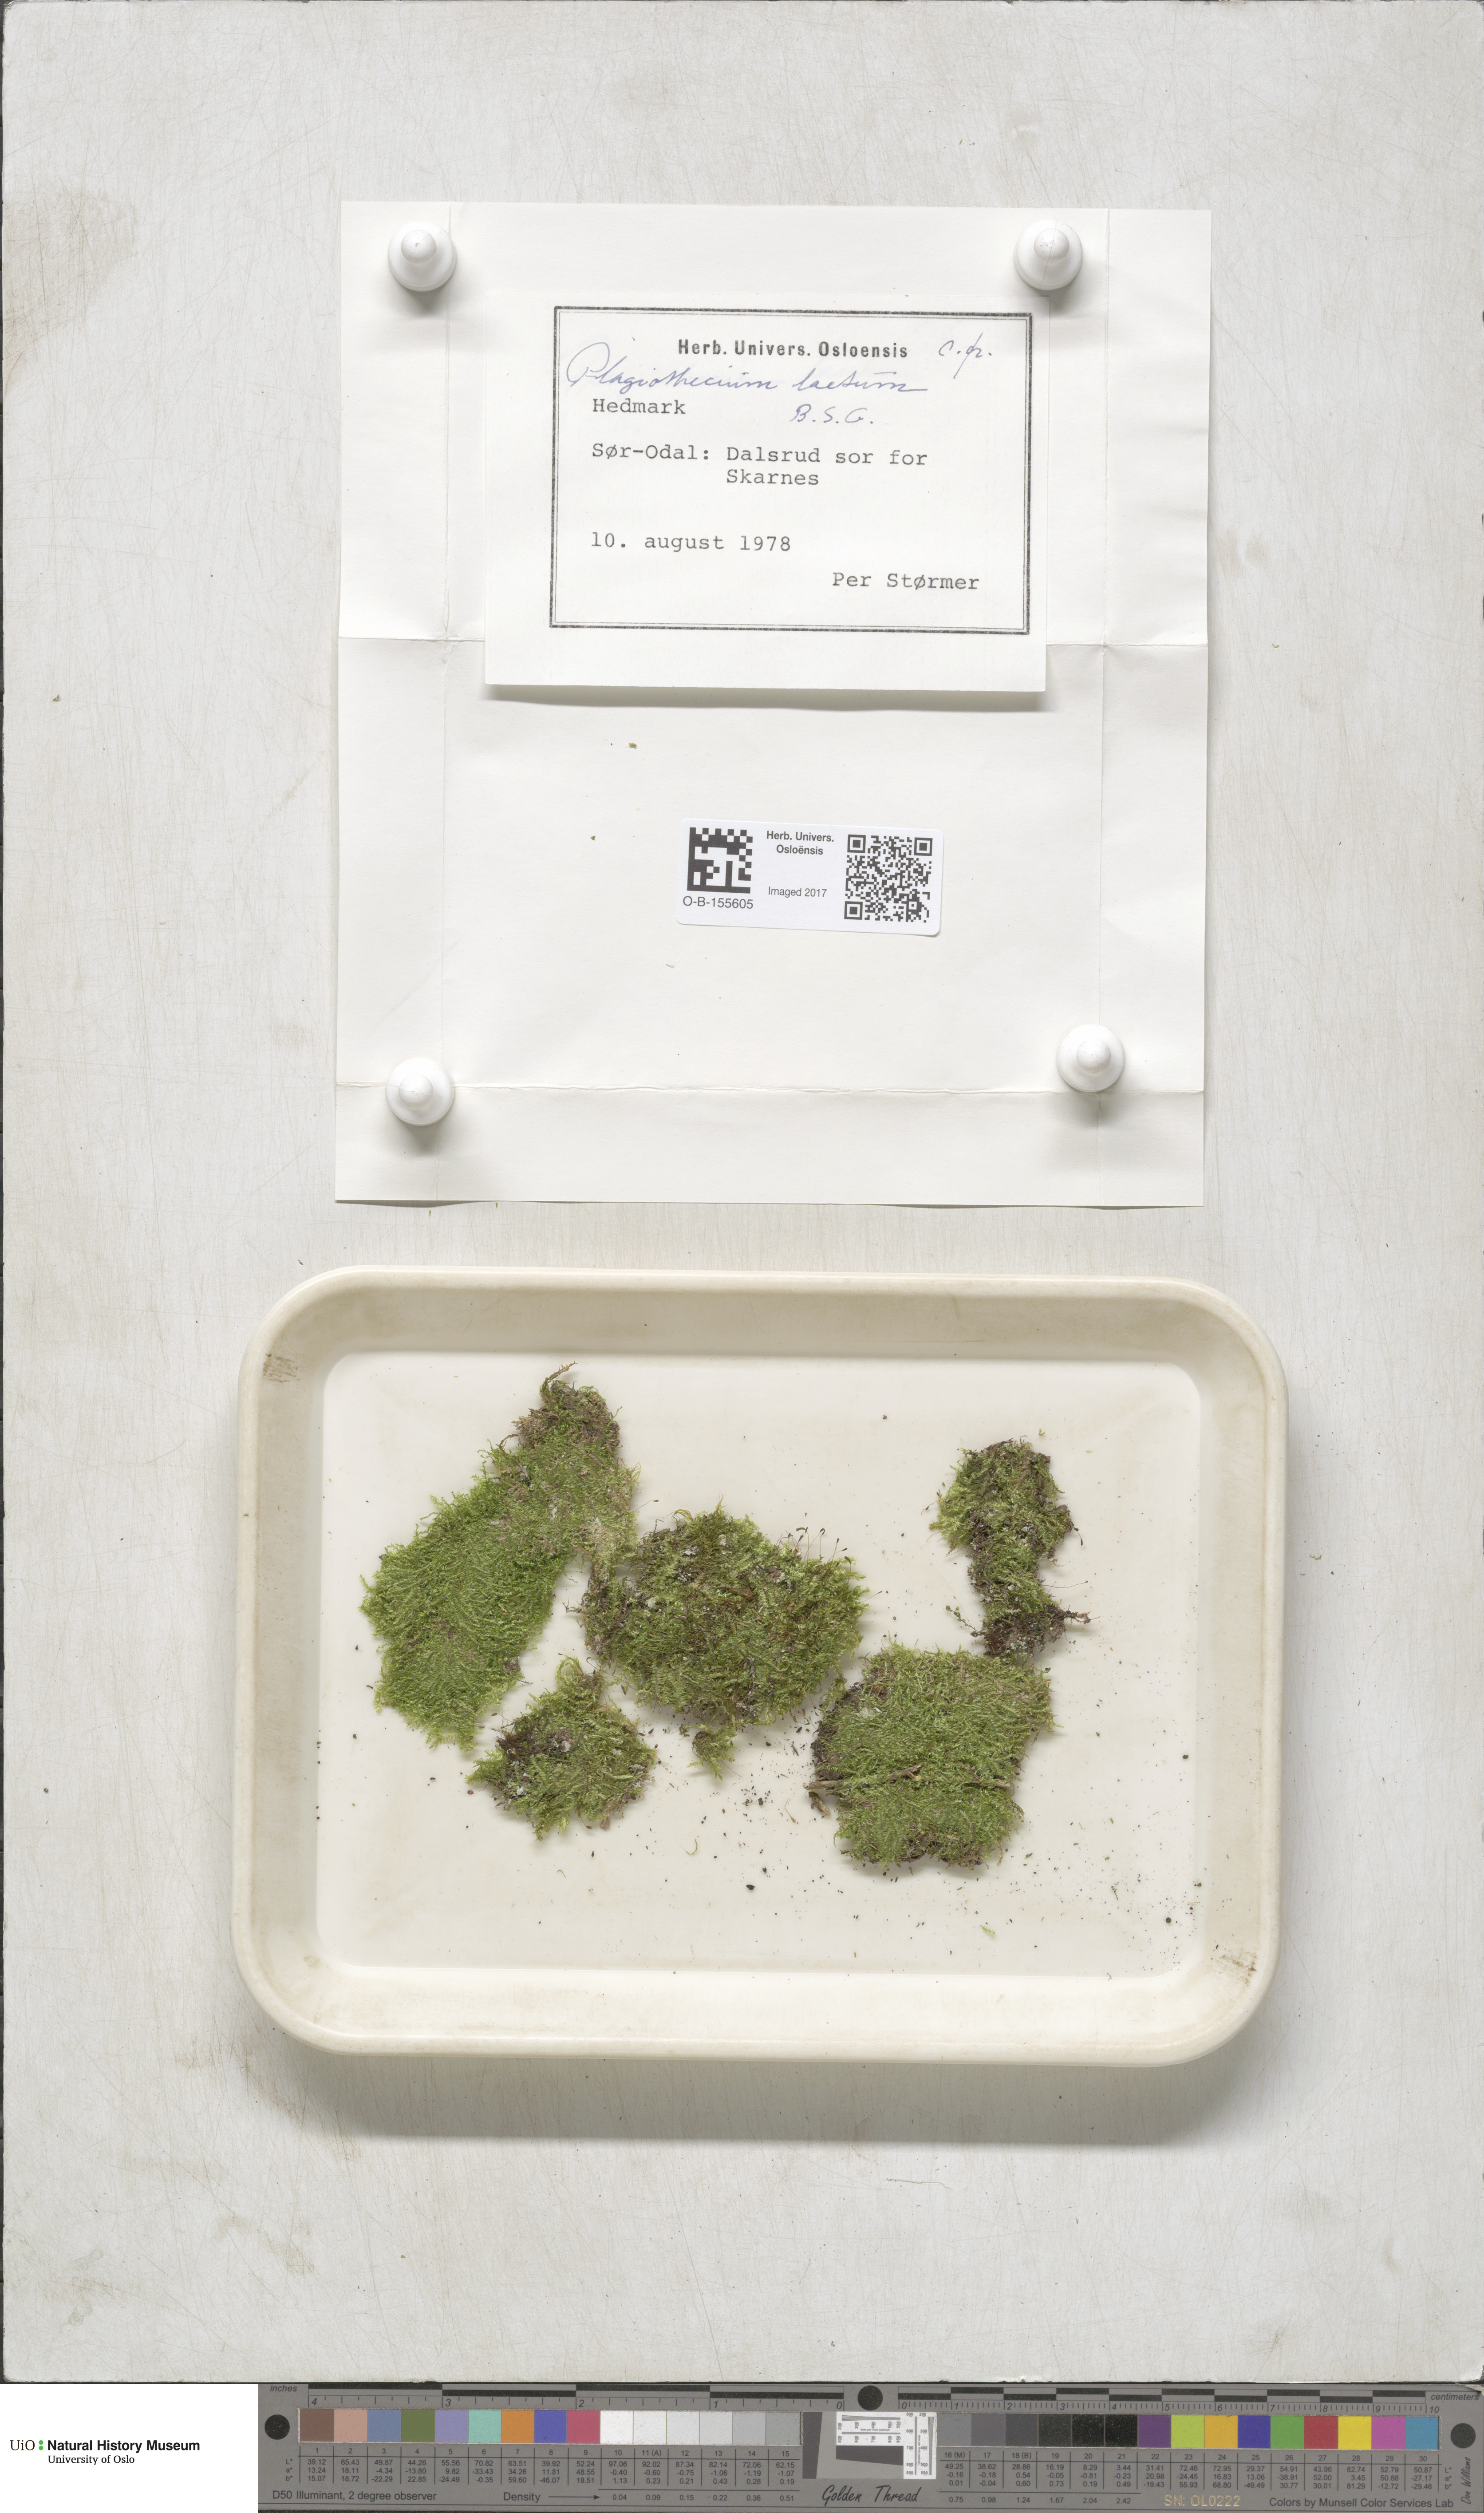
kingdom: Plantae
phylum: Bryophyta
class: Bryopsida
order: Hypnales
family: Plagiotheciaceae
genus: Plagiothecium
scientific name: Plagiothecium laetum
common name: Bright silk moss
